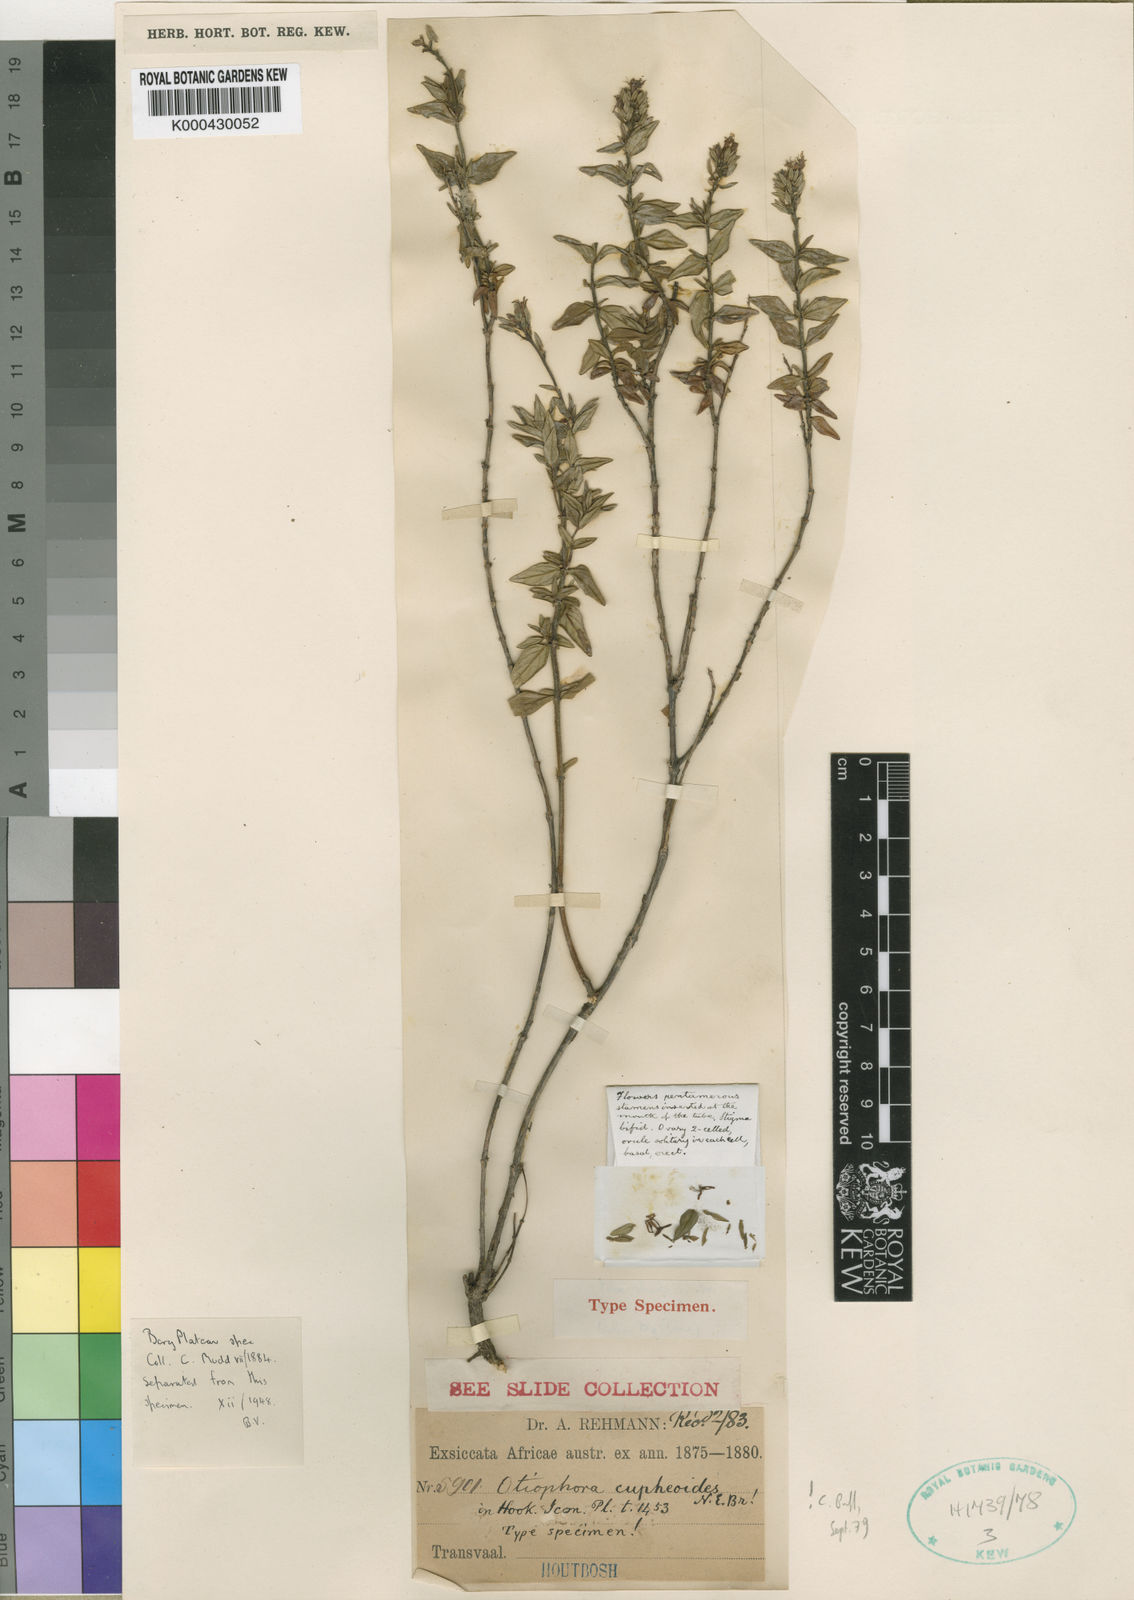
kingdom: Plantae
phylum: Tracheophyta
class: Magnoliopsida
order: Gentianales
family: Rubiaceae
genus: Otiophora
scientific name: Otiophora cupheoides
